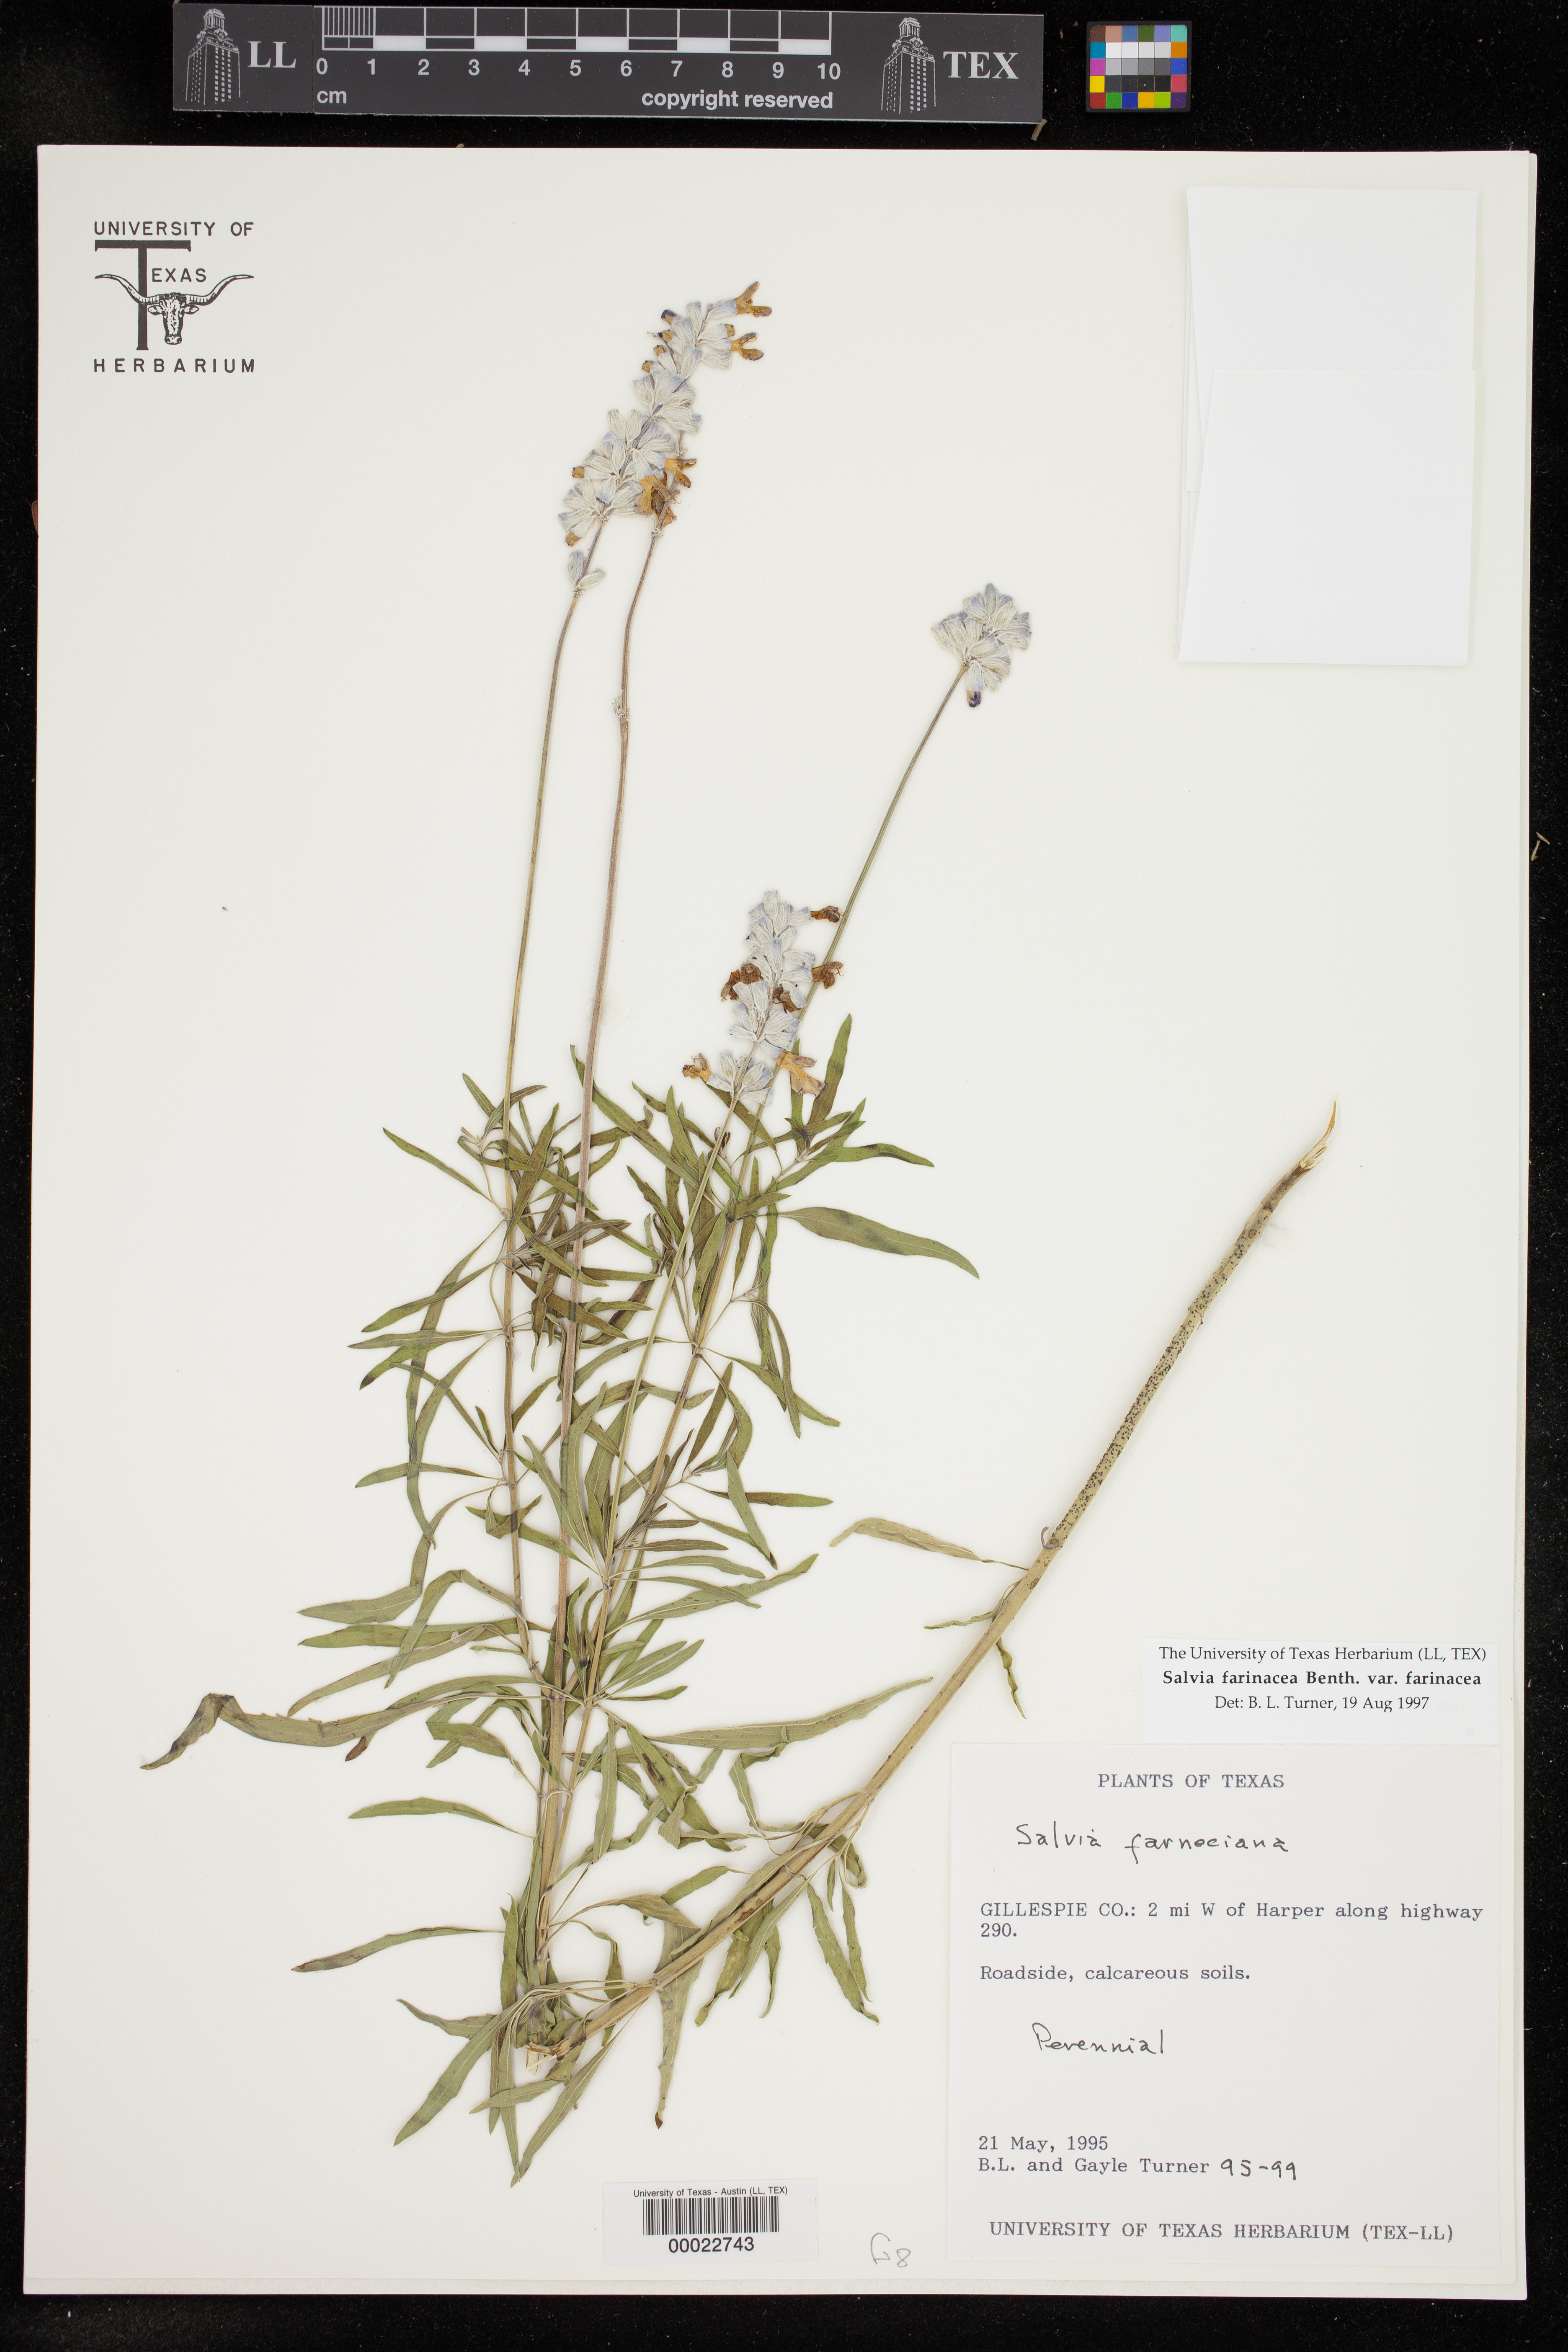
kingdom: Plantae
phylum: Tracheophyta
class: Magnoliopsida
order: Lamiales
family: Lamiaceae
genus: Salvia
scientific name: Salvia farinacea
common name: Mealy sage
